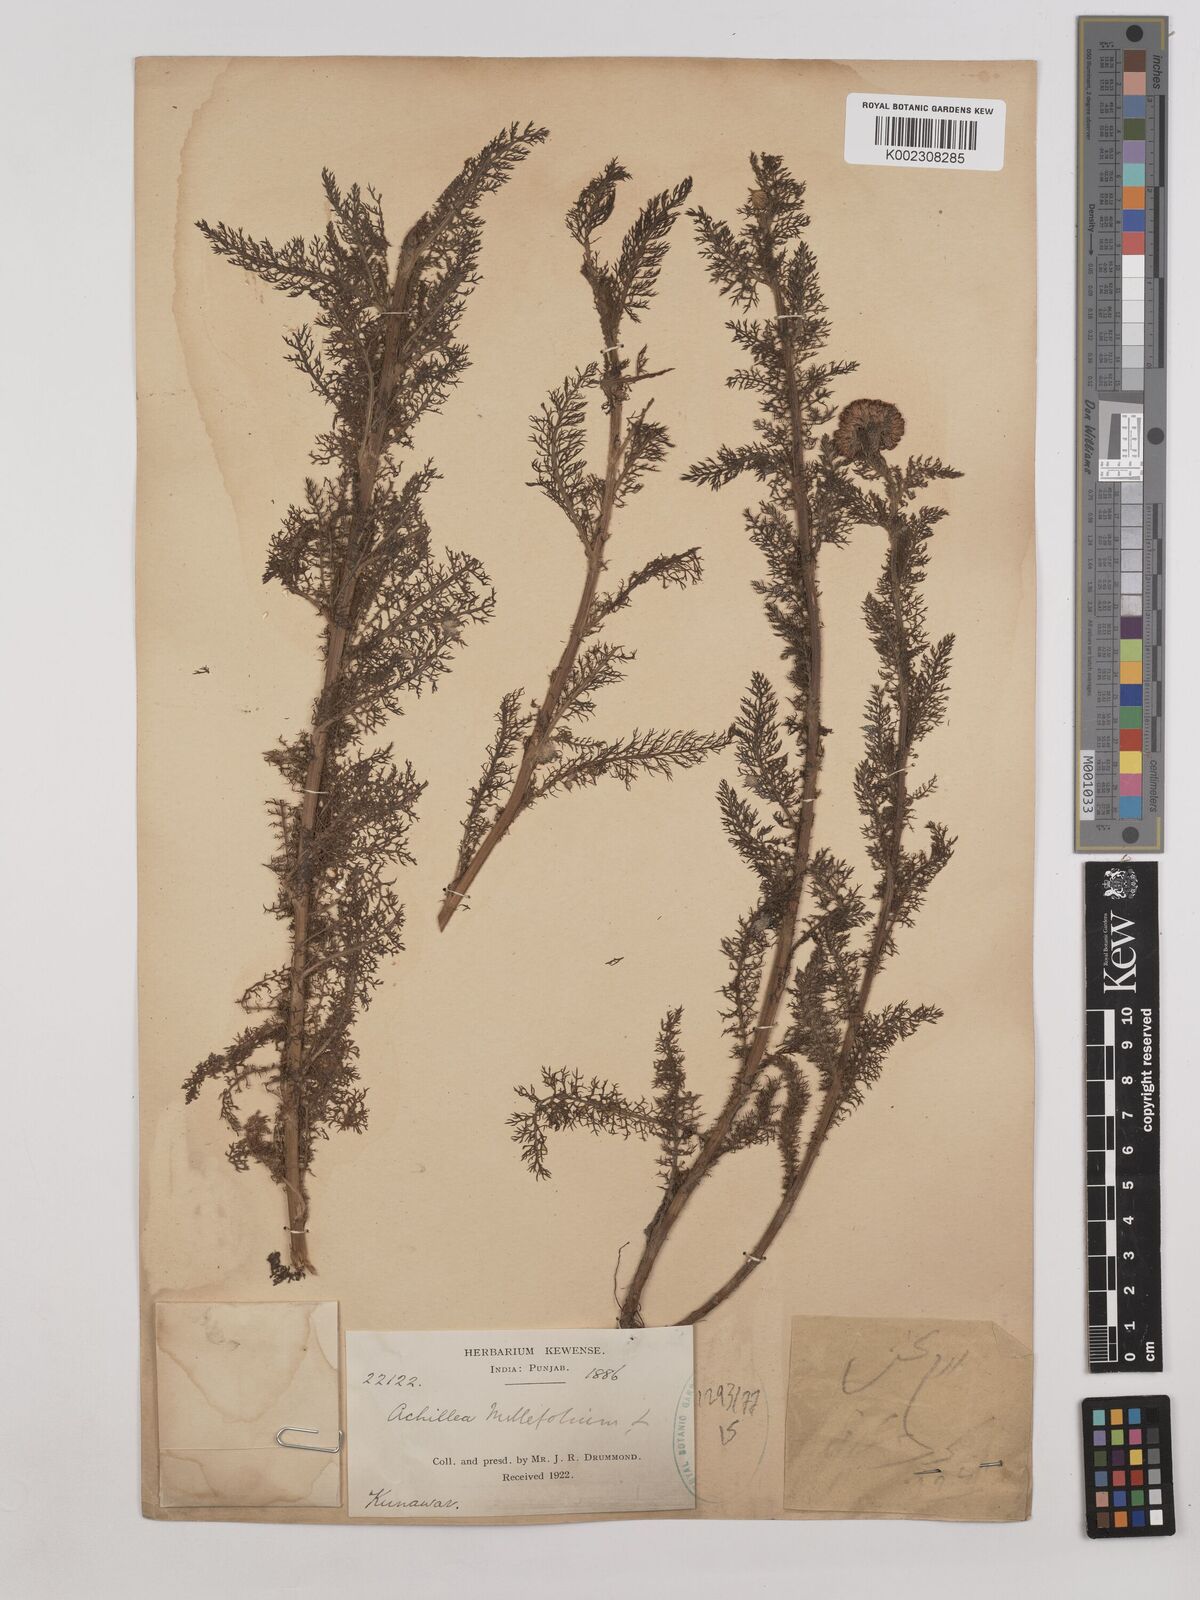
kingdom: Plantae
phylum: Tracheophyta
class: Magnoliopsida
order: Asterales
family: Asteraceae
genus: Achillea
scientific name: Achillea millefolium
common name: Yarrow
